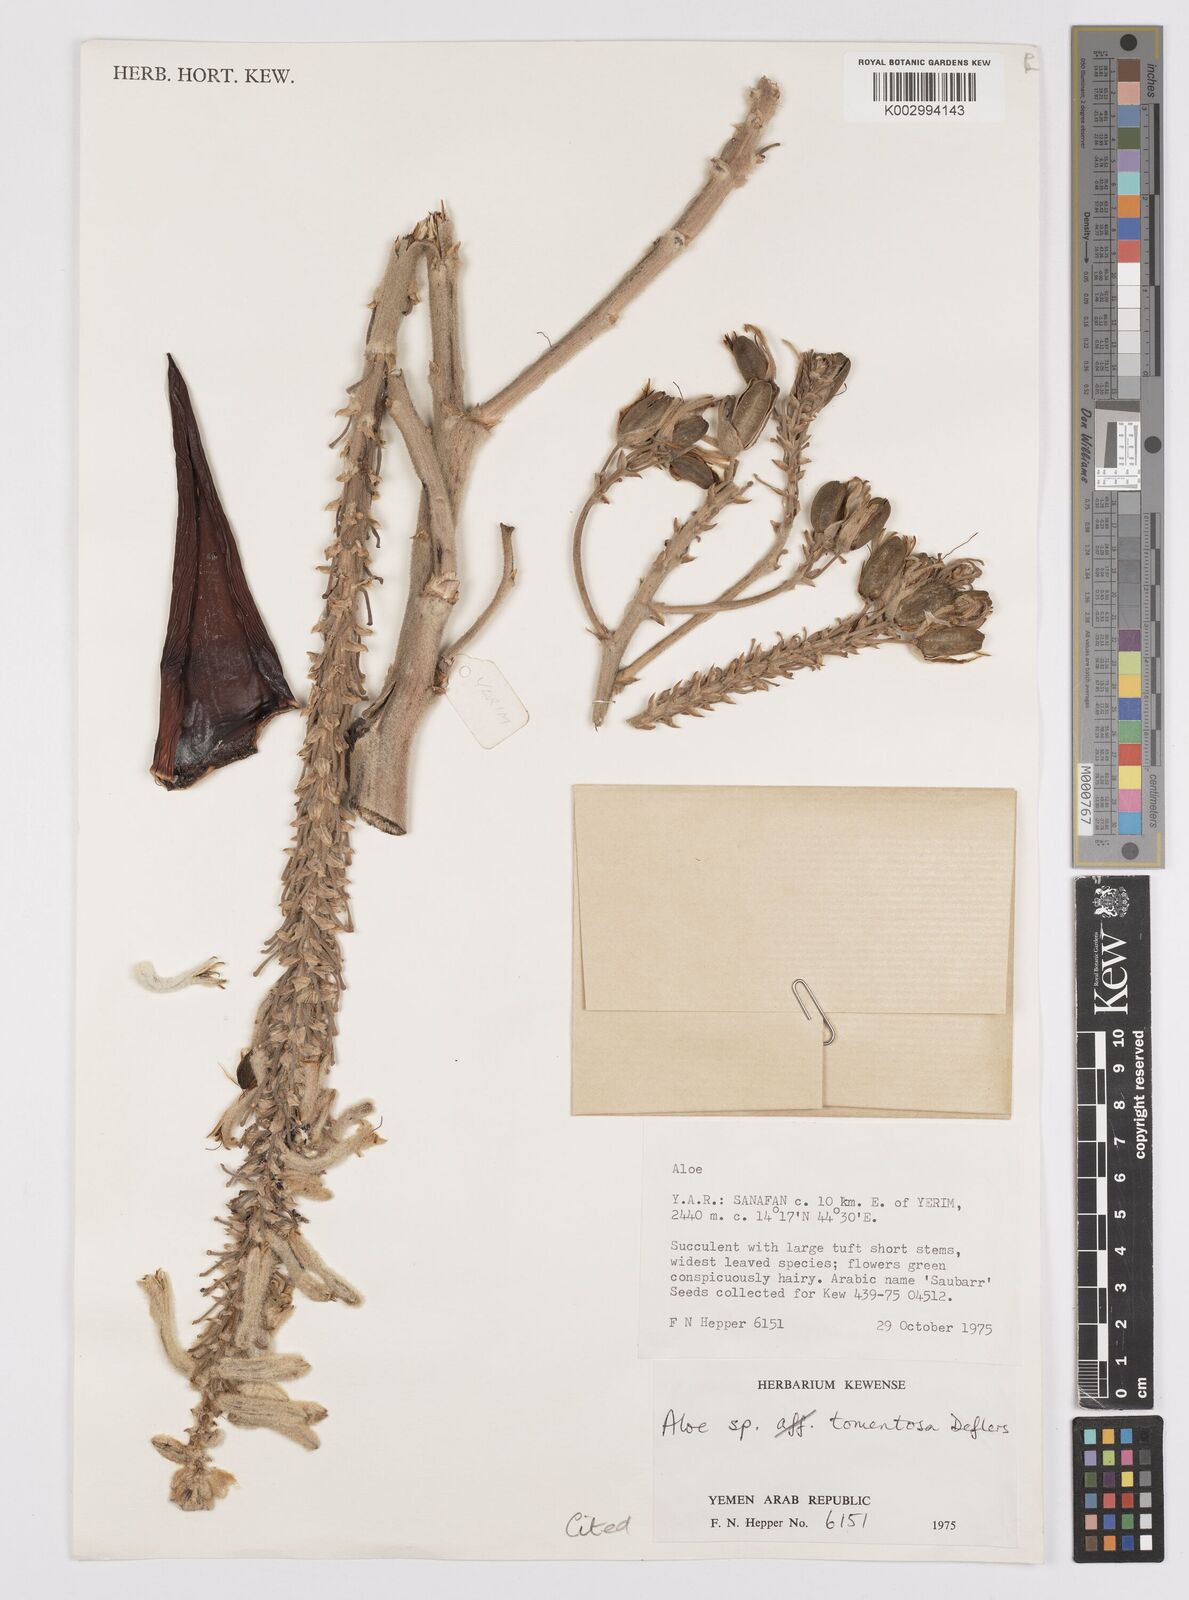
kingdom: Plantae
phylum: Tracheophyta
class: Liliopsida
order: Asparagales
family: Asphodelaceae
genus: Aloe
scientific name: Aloe tomentosa
